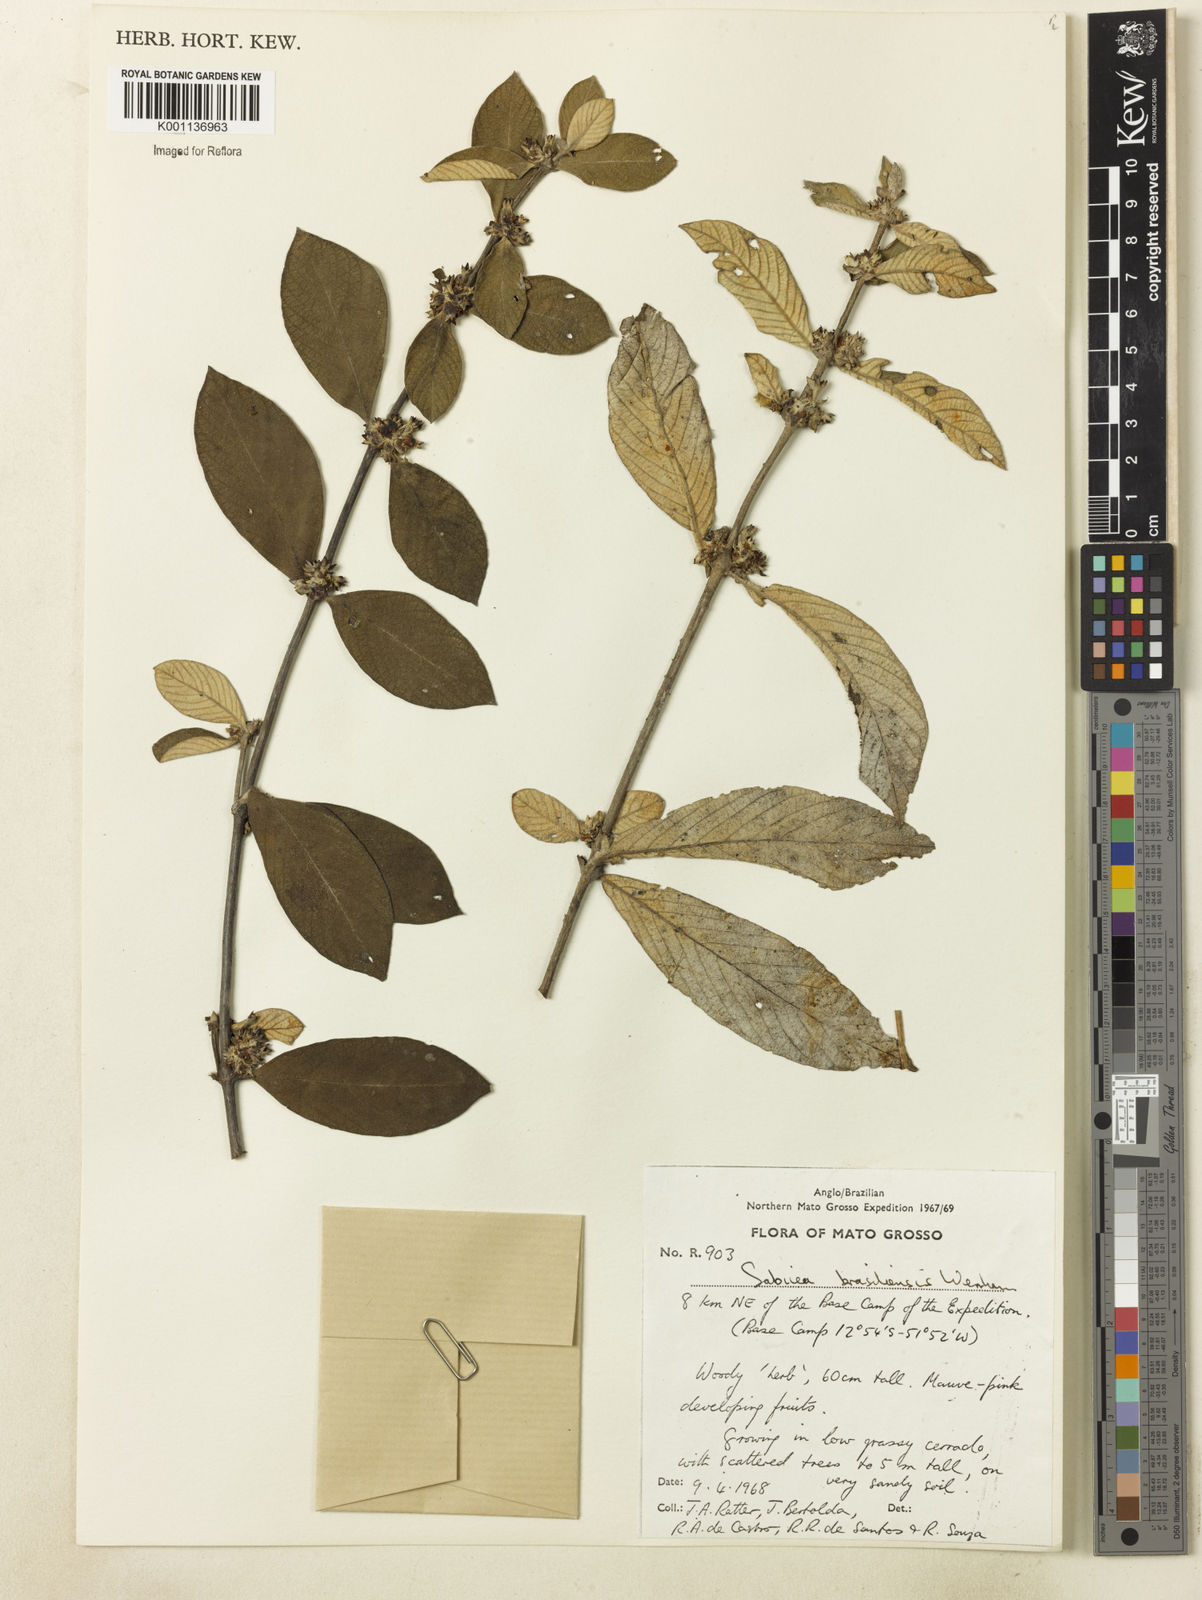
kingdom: Plantae
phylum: Tracheophyta
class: Magnoliopsida
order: Gentianales
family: Rubiaceae
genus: Sabicea
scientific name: Sabicea brasiliensis
